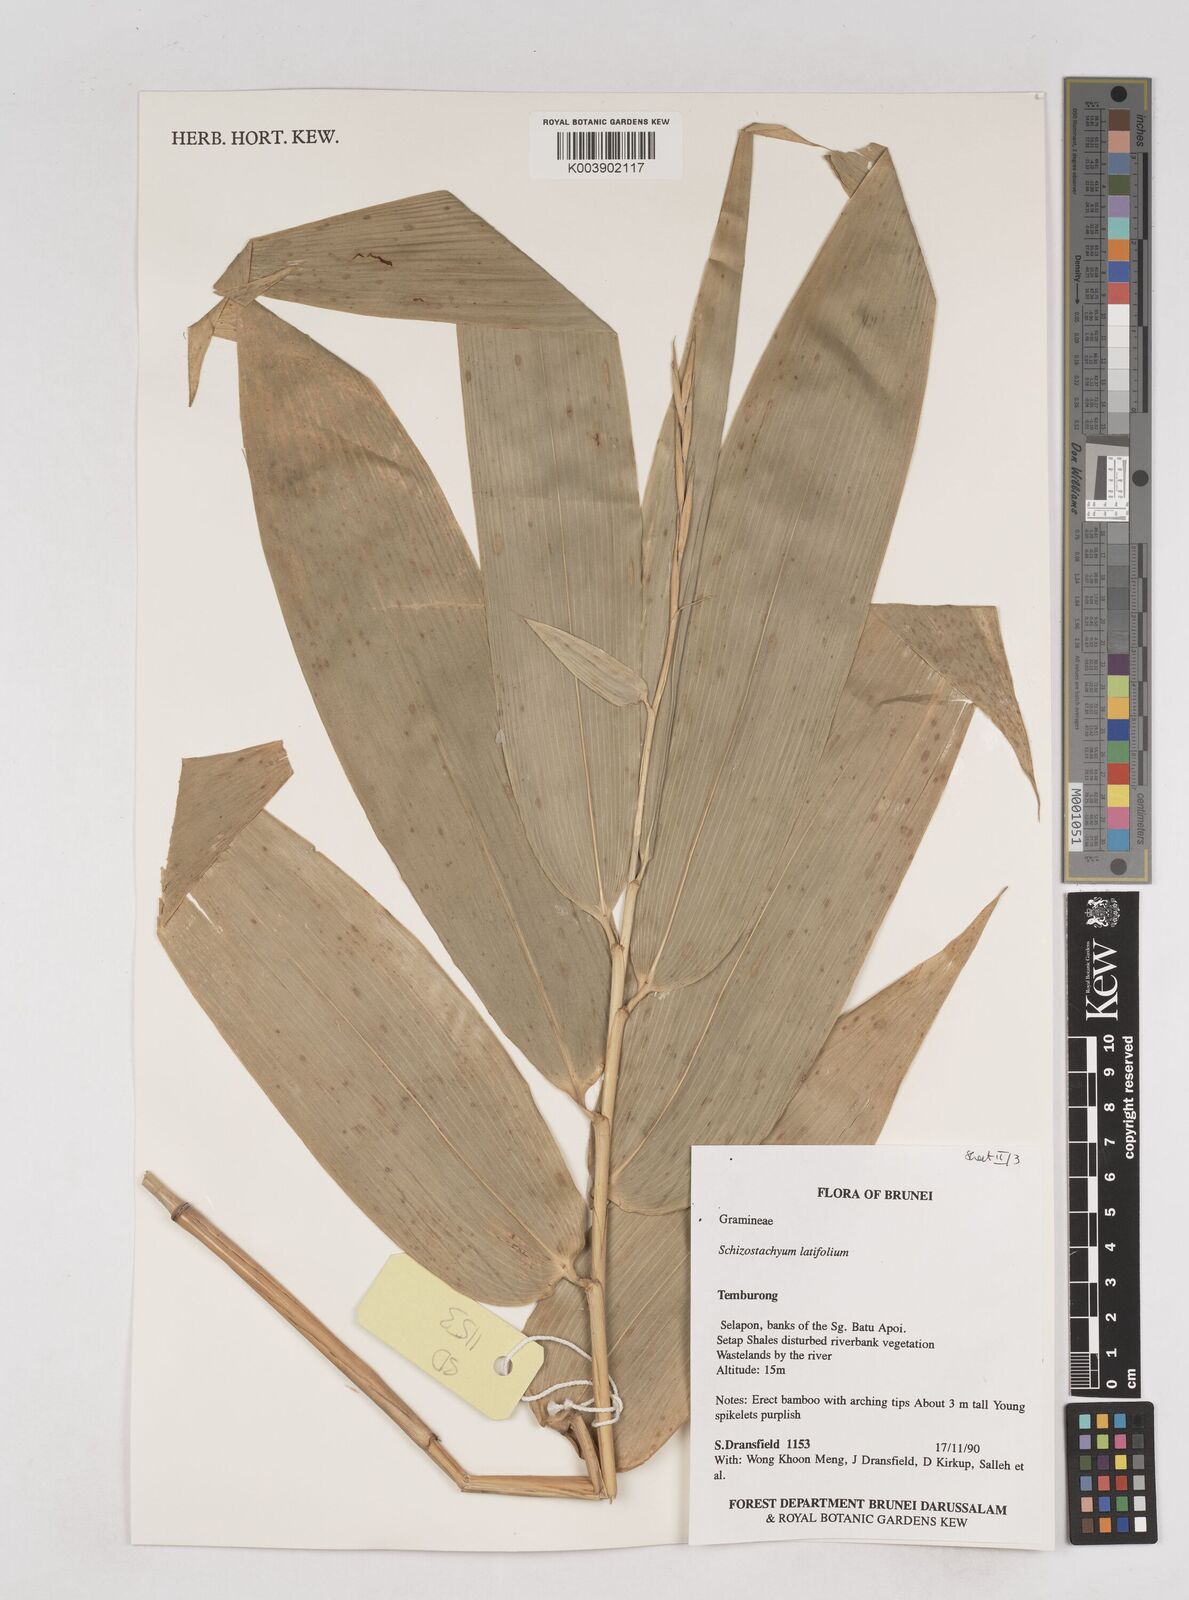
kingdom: Plantae
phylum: Tracheophyta
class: Liliopsida
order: Poales
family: Poaceae
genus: Schizostachyum
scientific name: Schizostachyum
